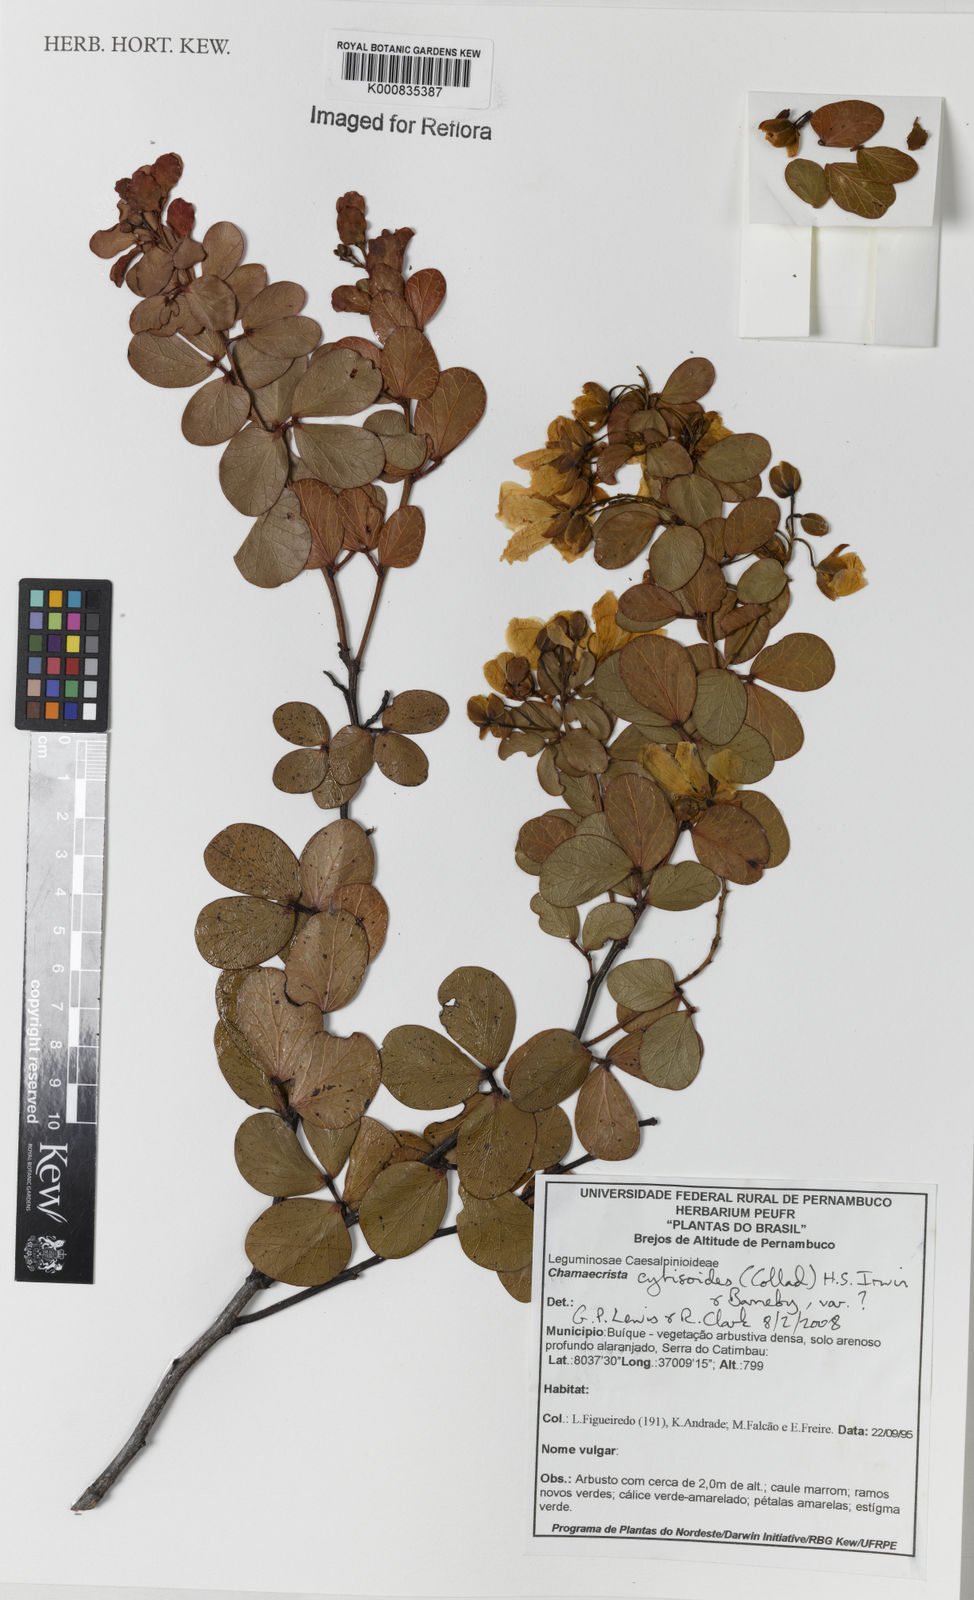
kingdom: Plantae
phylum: Tracheophyta
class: Magnoliopsida
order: Fabales
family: Fabaceae
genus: Chamaecrista
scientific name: Chamaecrista brachystachya
